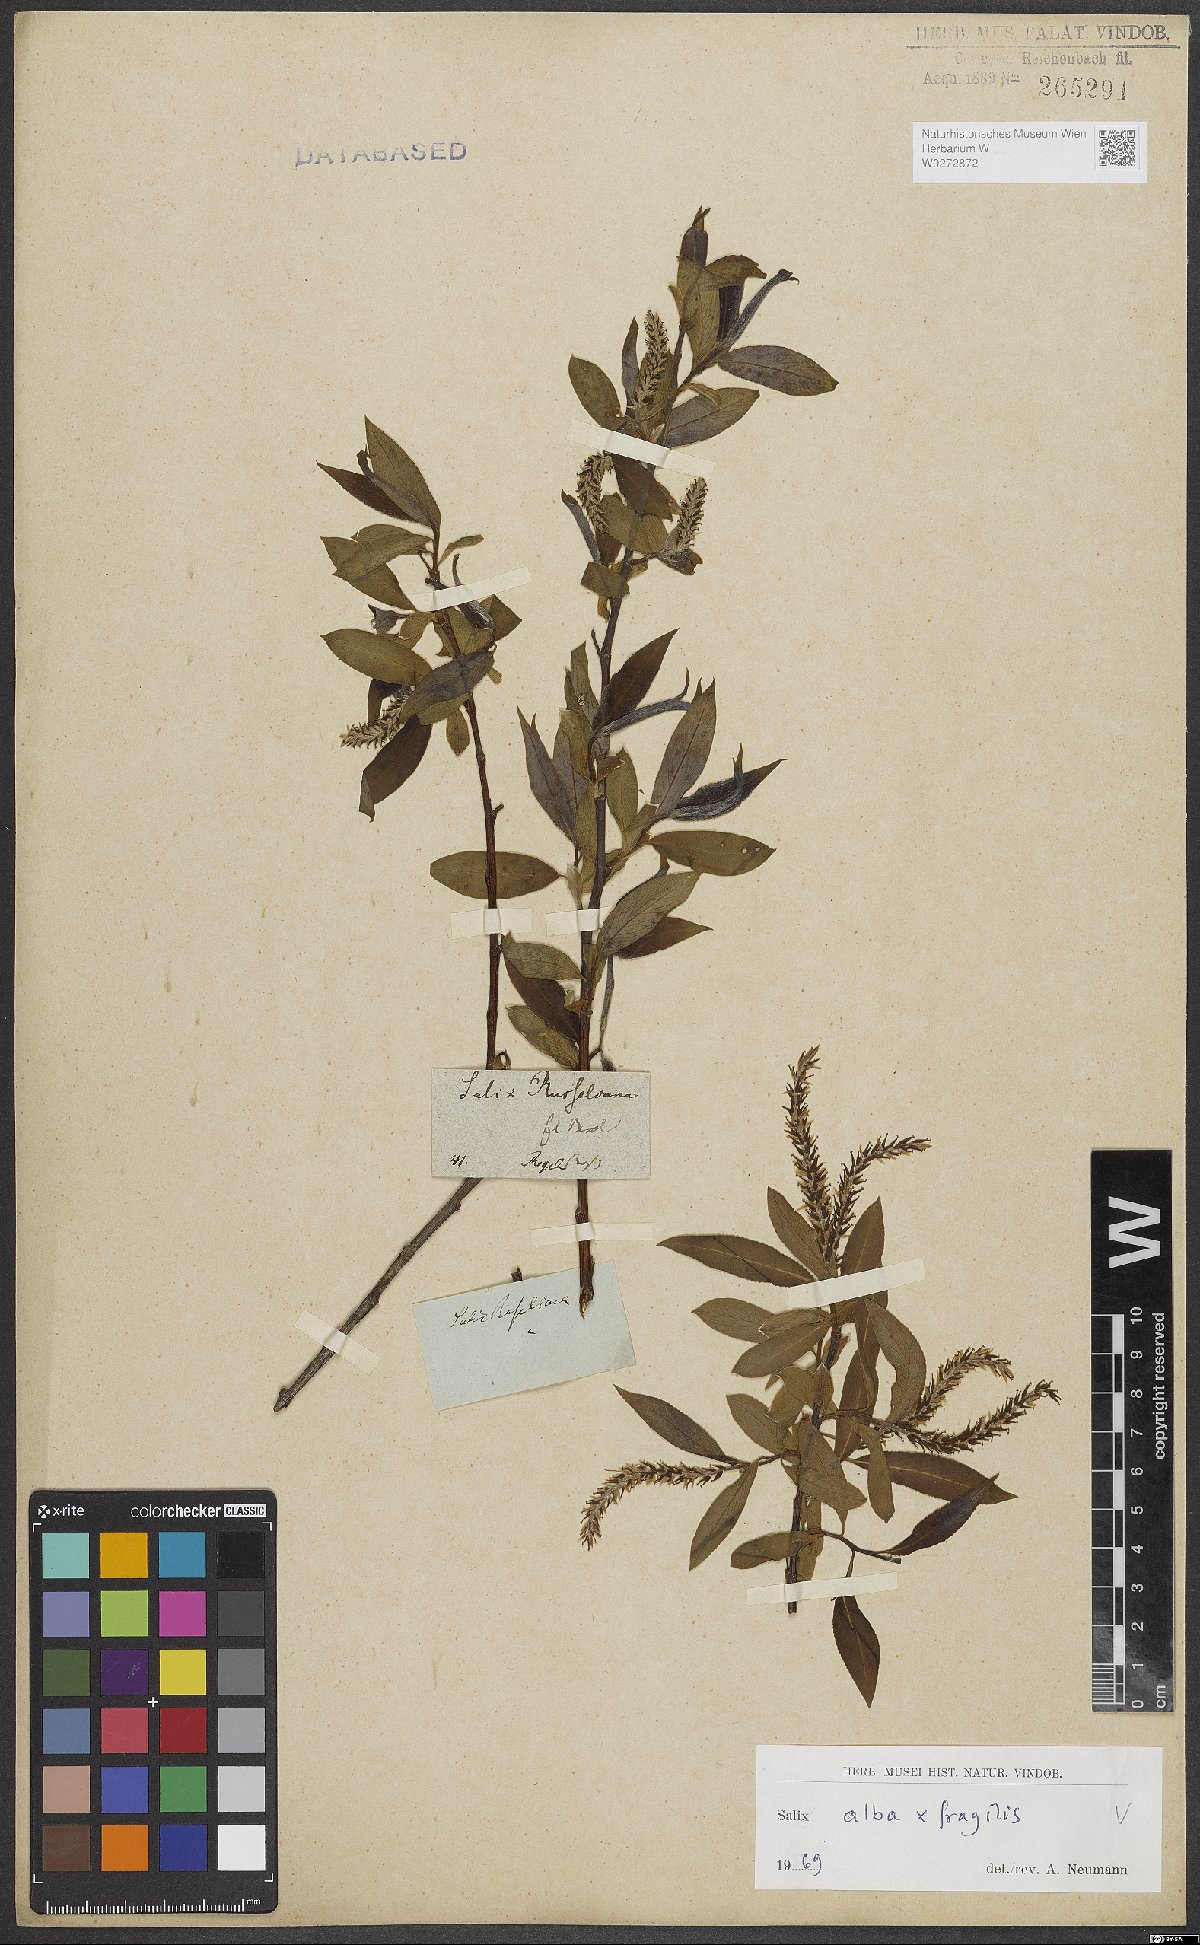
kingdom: Plantae
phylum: Tracheophyta
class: Magnoliopsida
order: Malpighiales
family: Salicaceae
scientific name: Salicaceae
